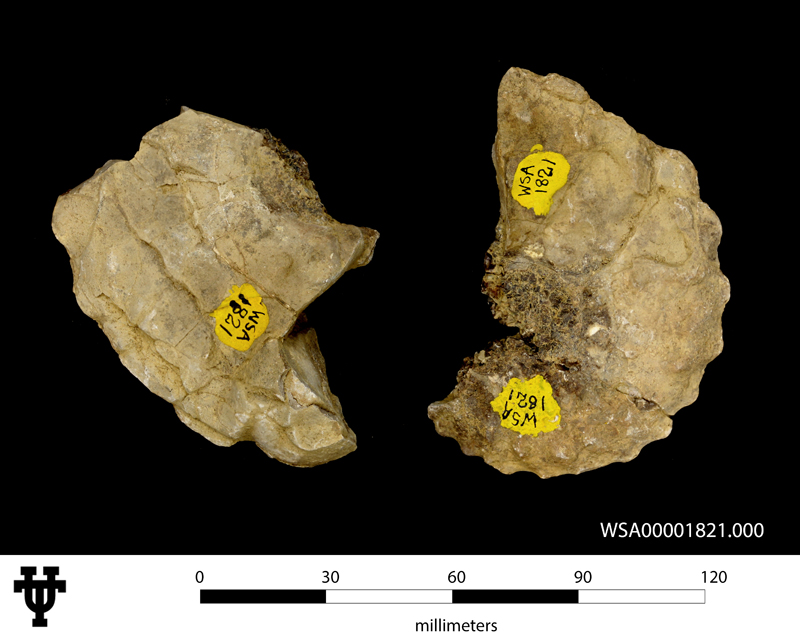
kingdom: Animalia
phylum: Mollusca
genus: Texasia
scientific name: Texasia
